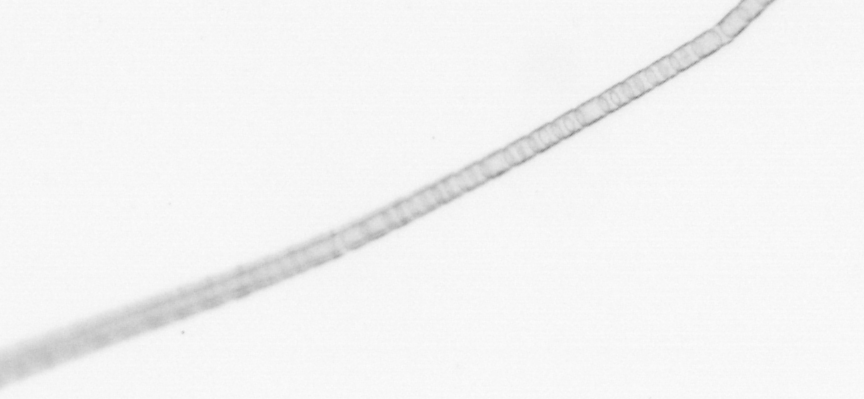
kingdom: Chromista
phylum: Ochrophyta
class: Bacillariophyceae
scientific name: Bacillariophyceae
